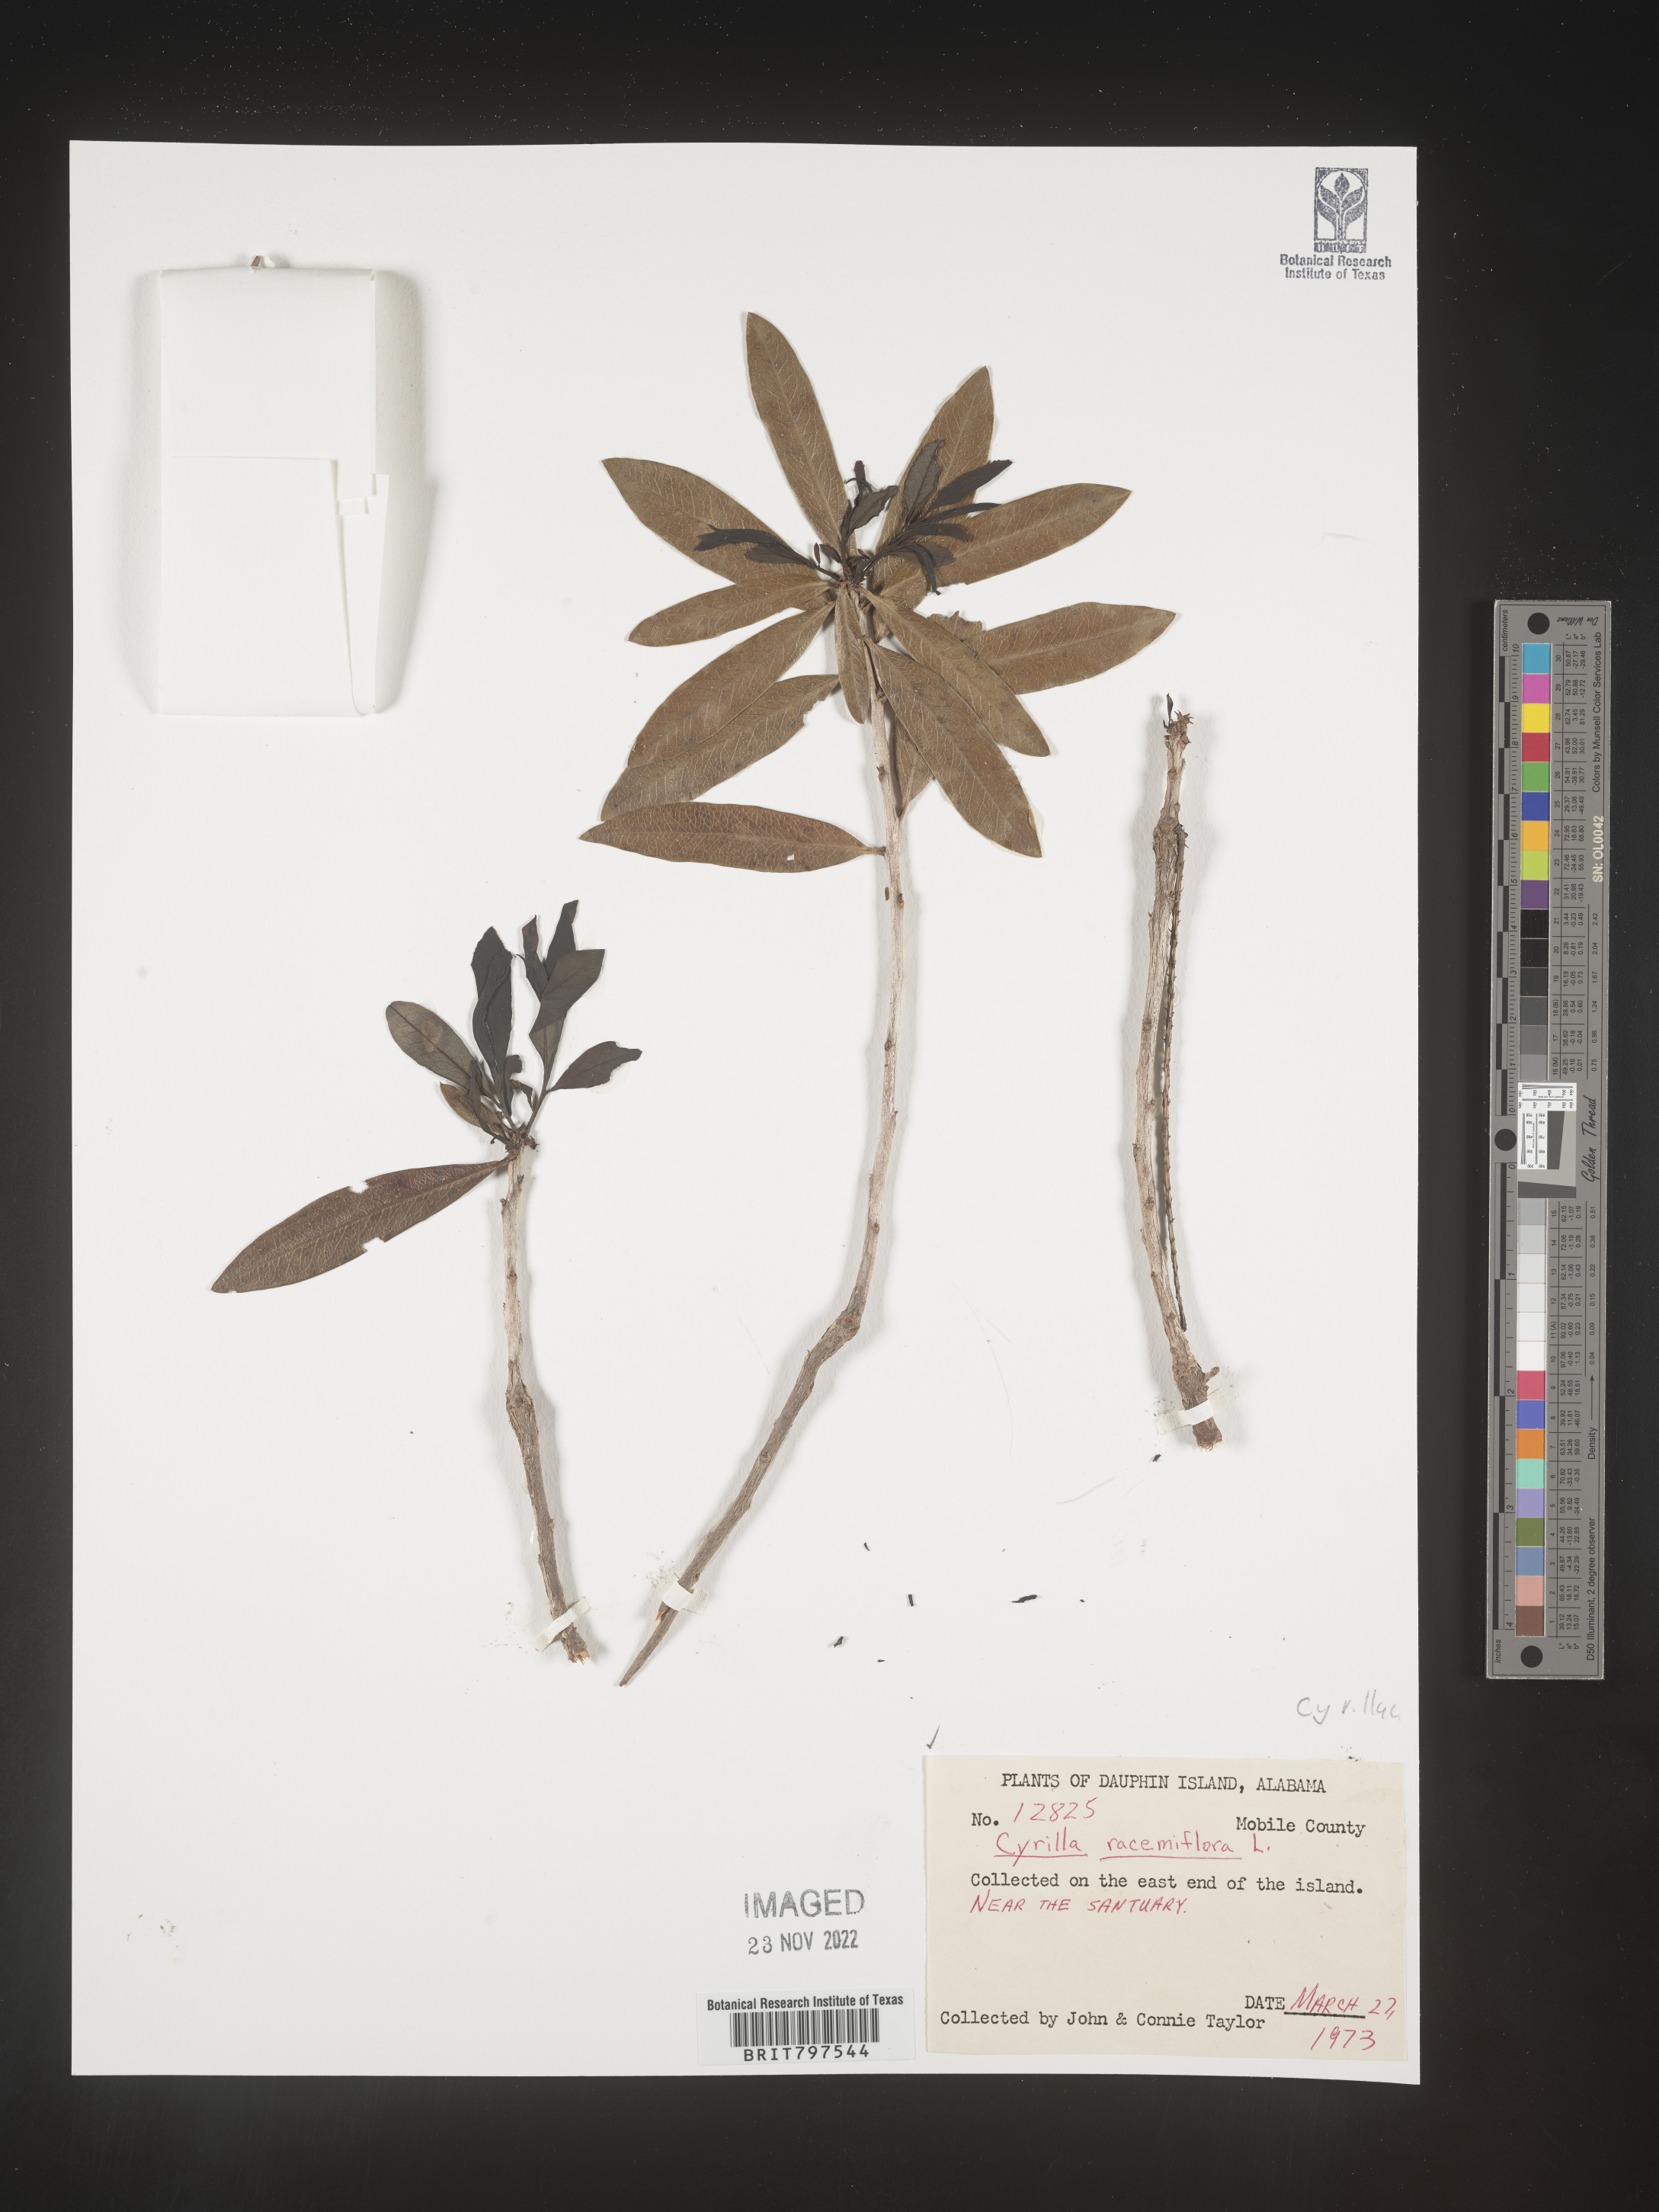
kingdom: Plantae
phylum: Tracheophyta
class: Magnoliopsida
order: Ericales
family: Cyrillaceae
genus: Cyrilla
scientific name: Cyrilla racemiflora
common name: Black titi
